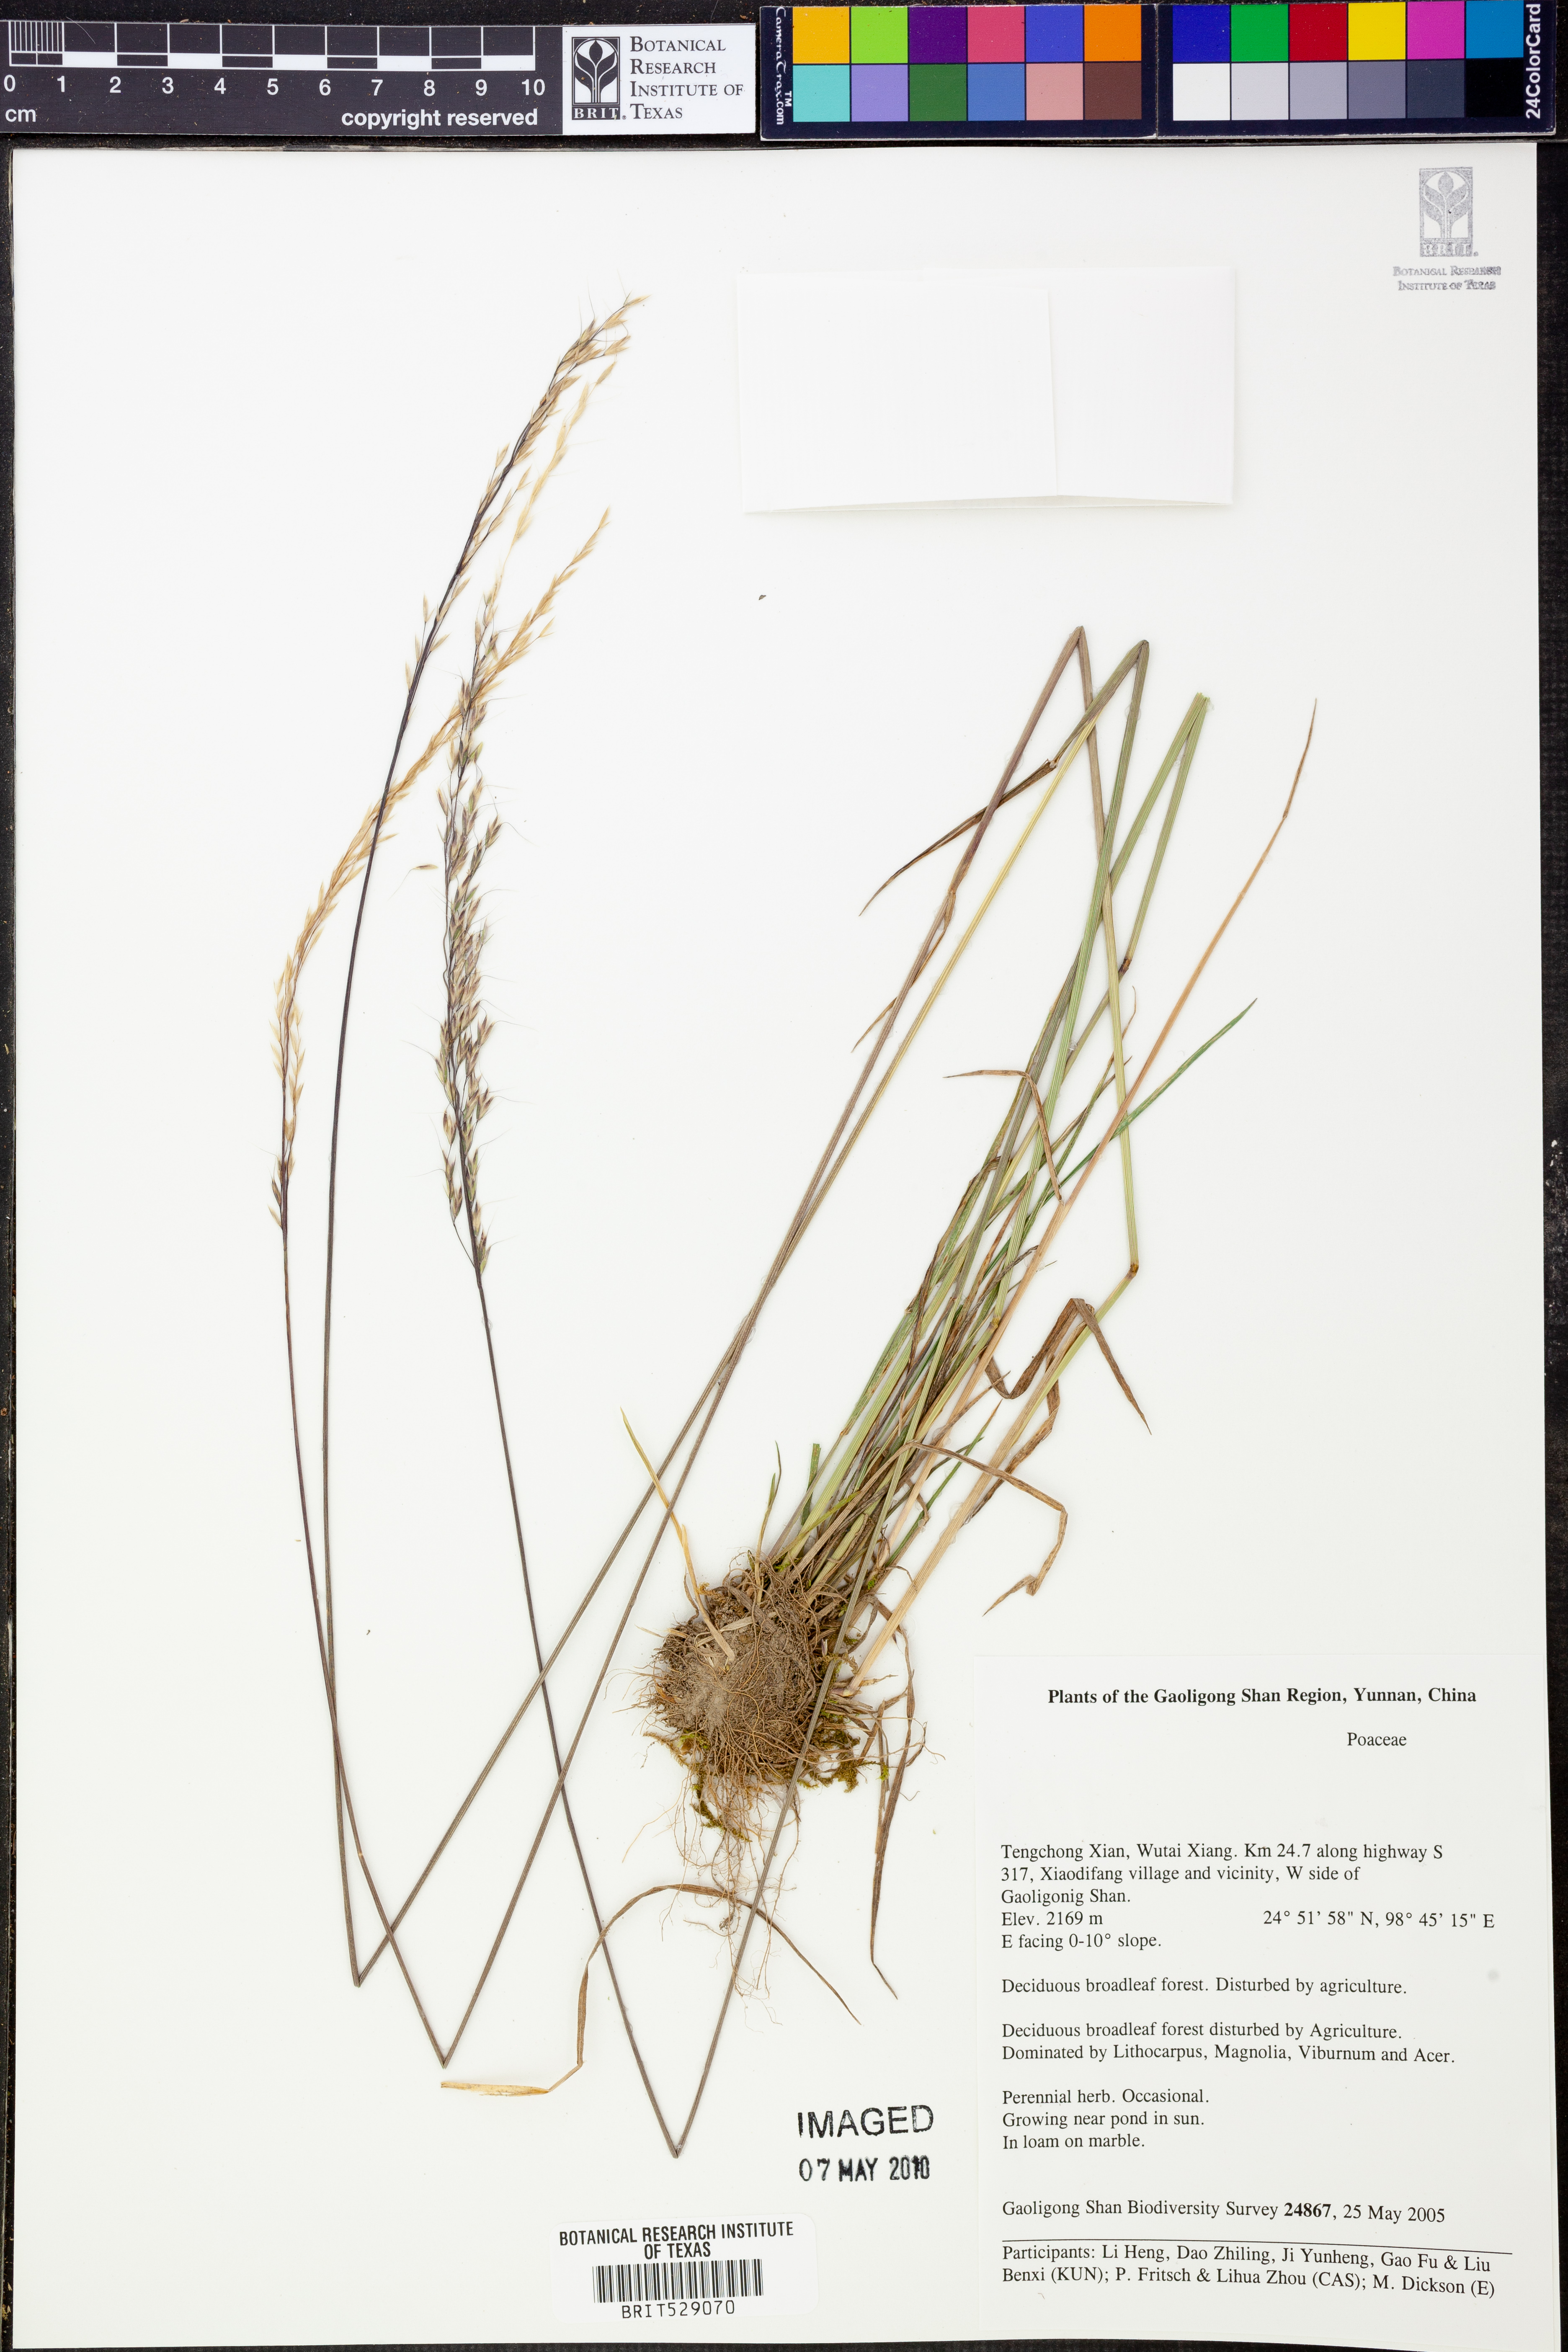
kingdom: Plantae
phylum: Tracheophyta
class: Liliopsida
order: Poales
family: Poaceae
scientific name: Poaceae
